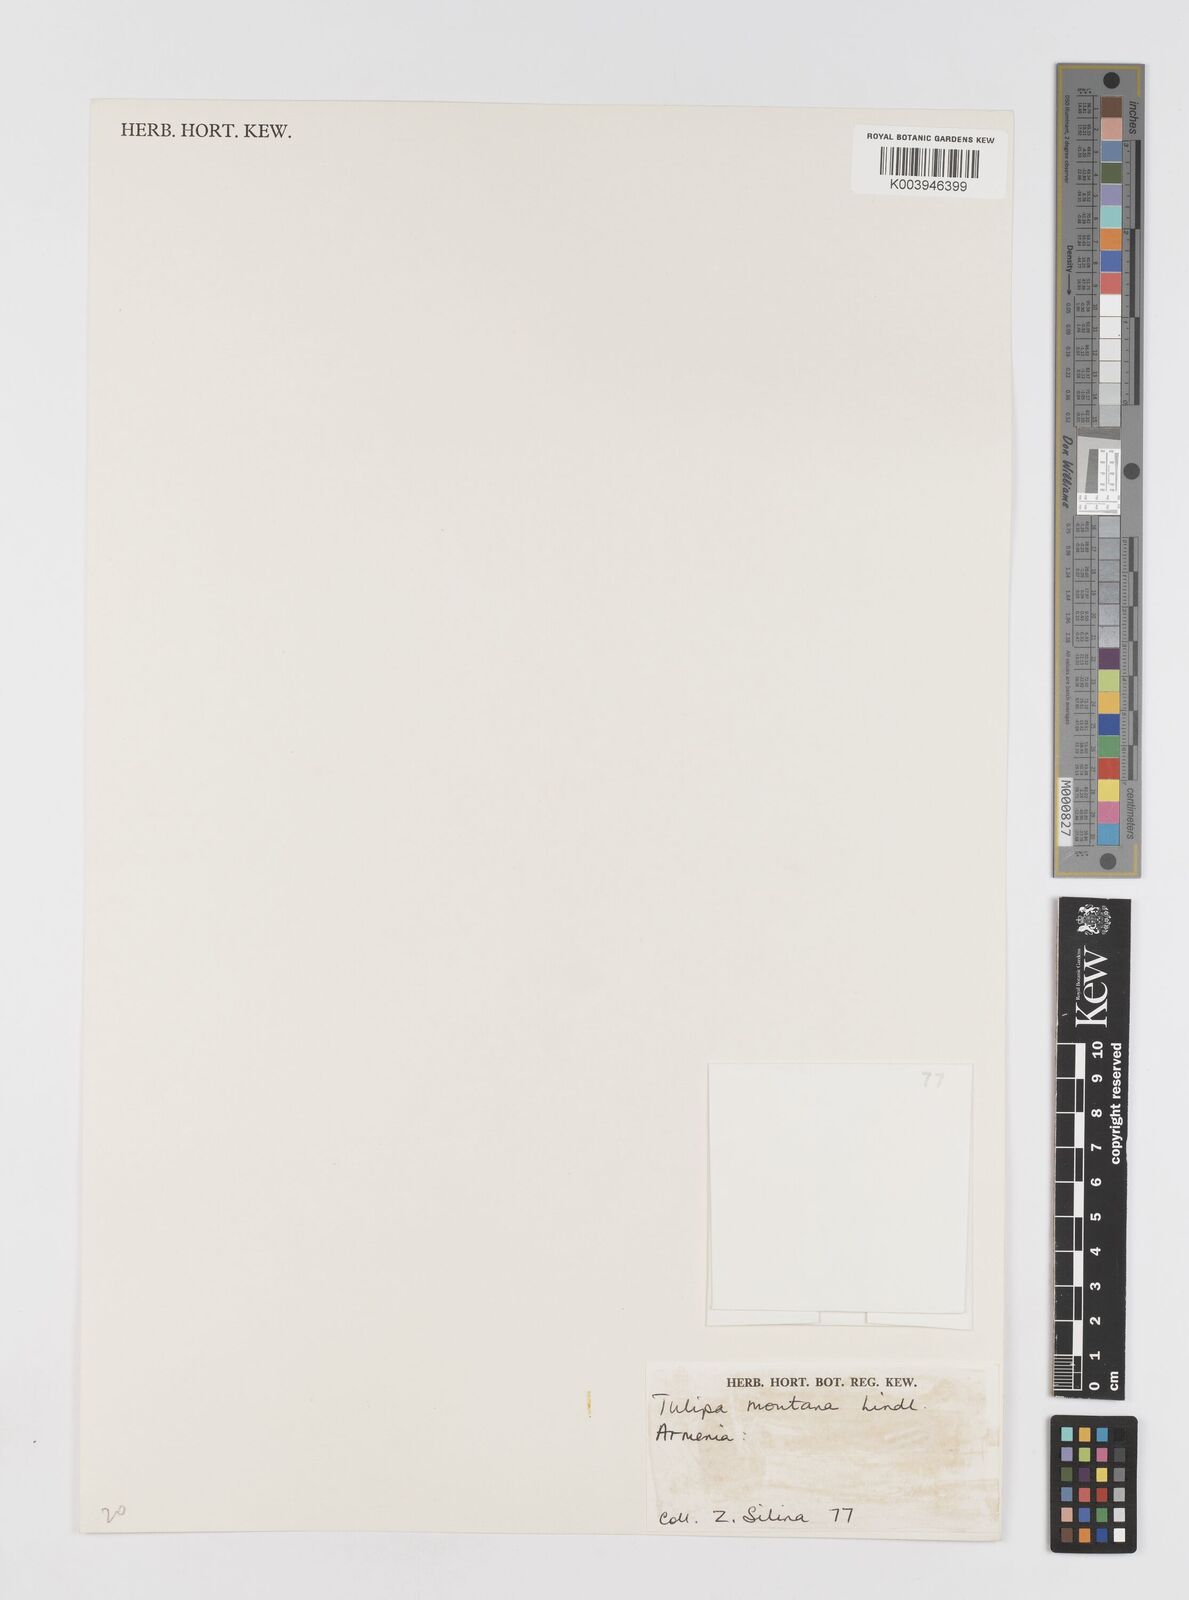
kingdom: Plantae
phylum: Tracheophyta
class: Liliopsida
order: Liliales
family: Liliaceae
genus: Tulipa
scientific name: Tulipa sosnowskyi
